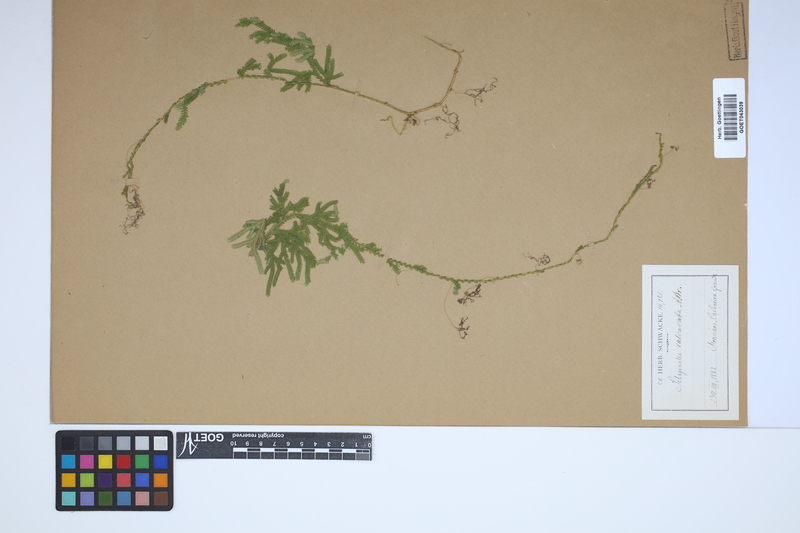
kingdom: Plantae
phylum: Tracheophyta
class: Lycopodiopsida
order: Selaginellales
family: Selaginellaceae
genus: Selaginella
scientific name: Selaginella stellata
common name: Starry spikemoss
